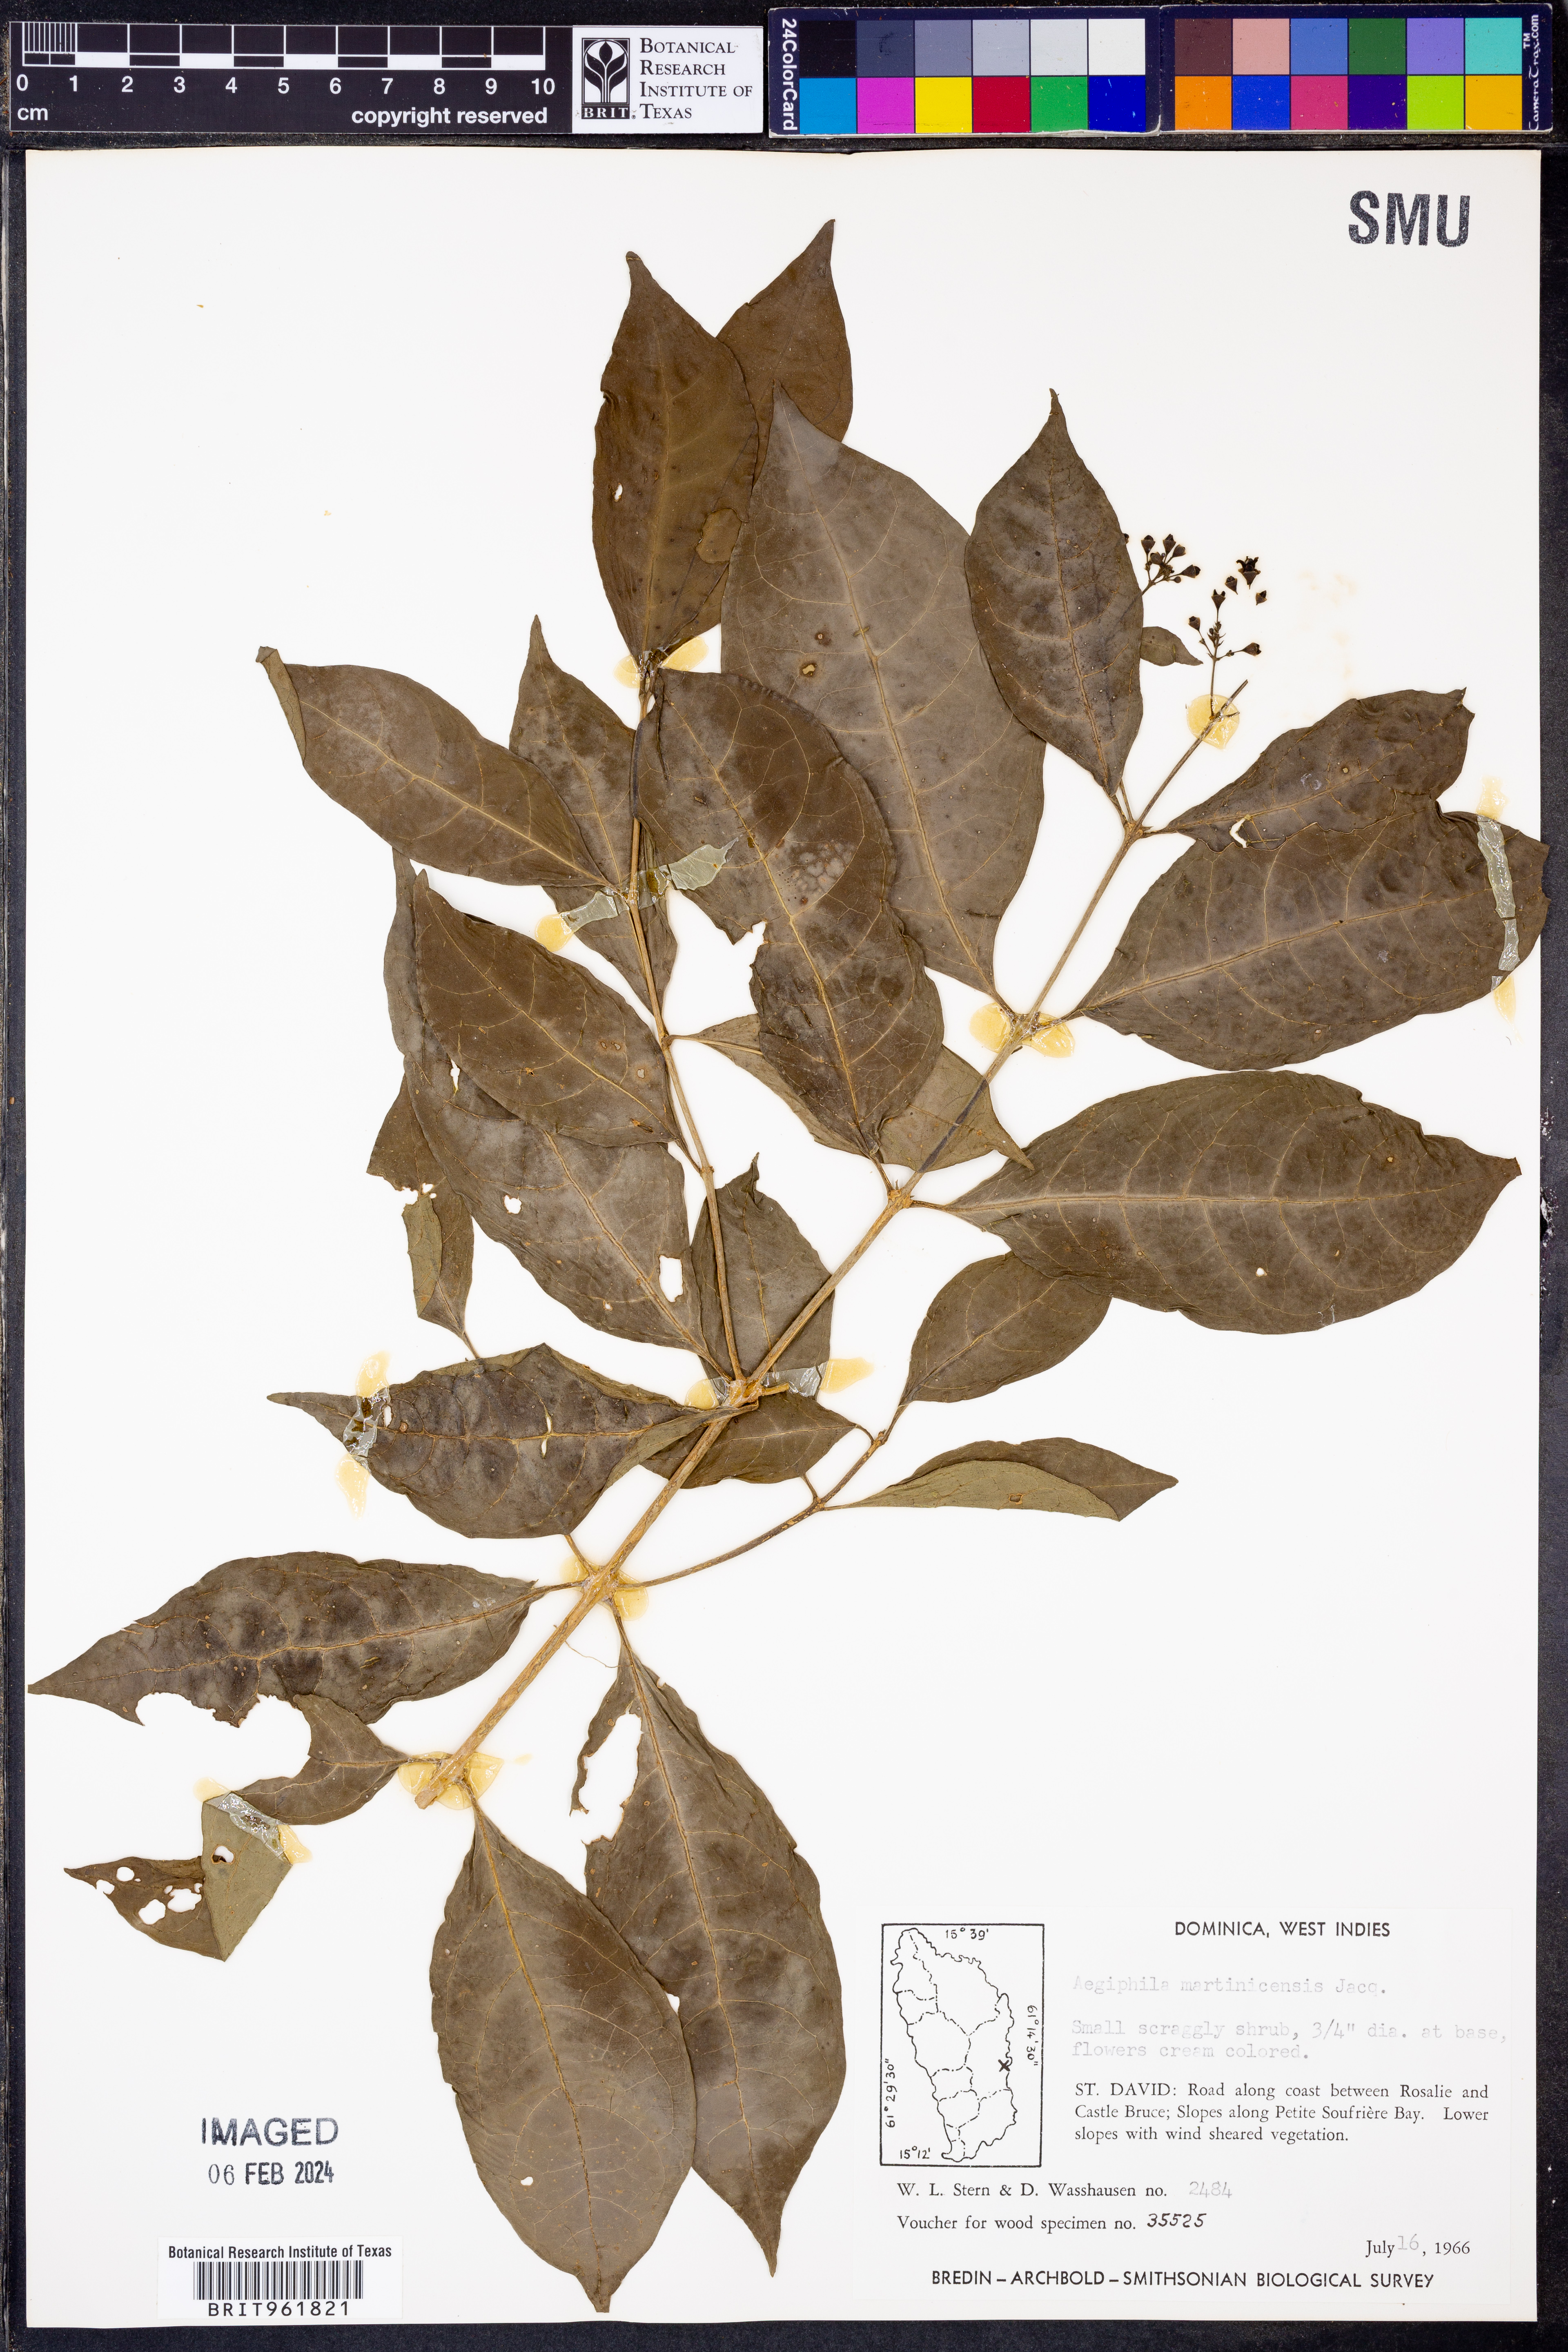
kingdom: Plantae
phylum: Tracheophyta
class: Magnoliopsida
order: Lamiales
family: Lamiaceae
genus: Aegiphila
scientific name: Aegiphila
